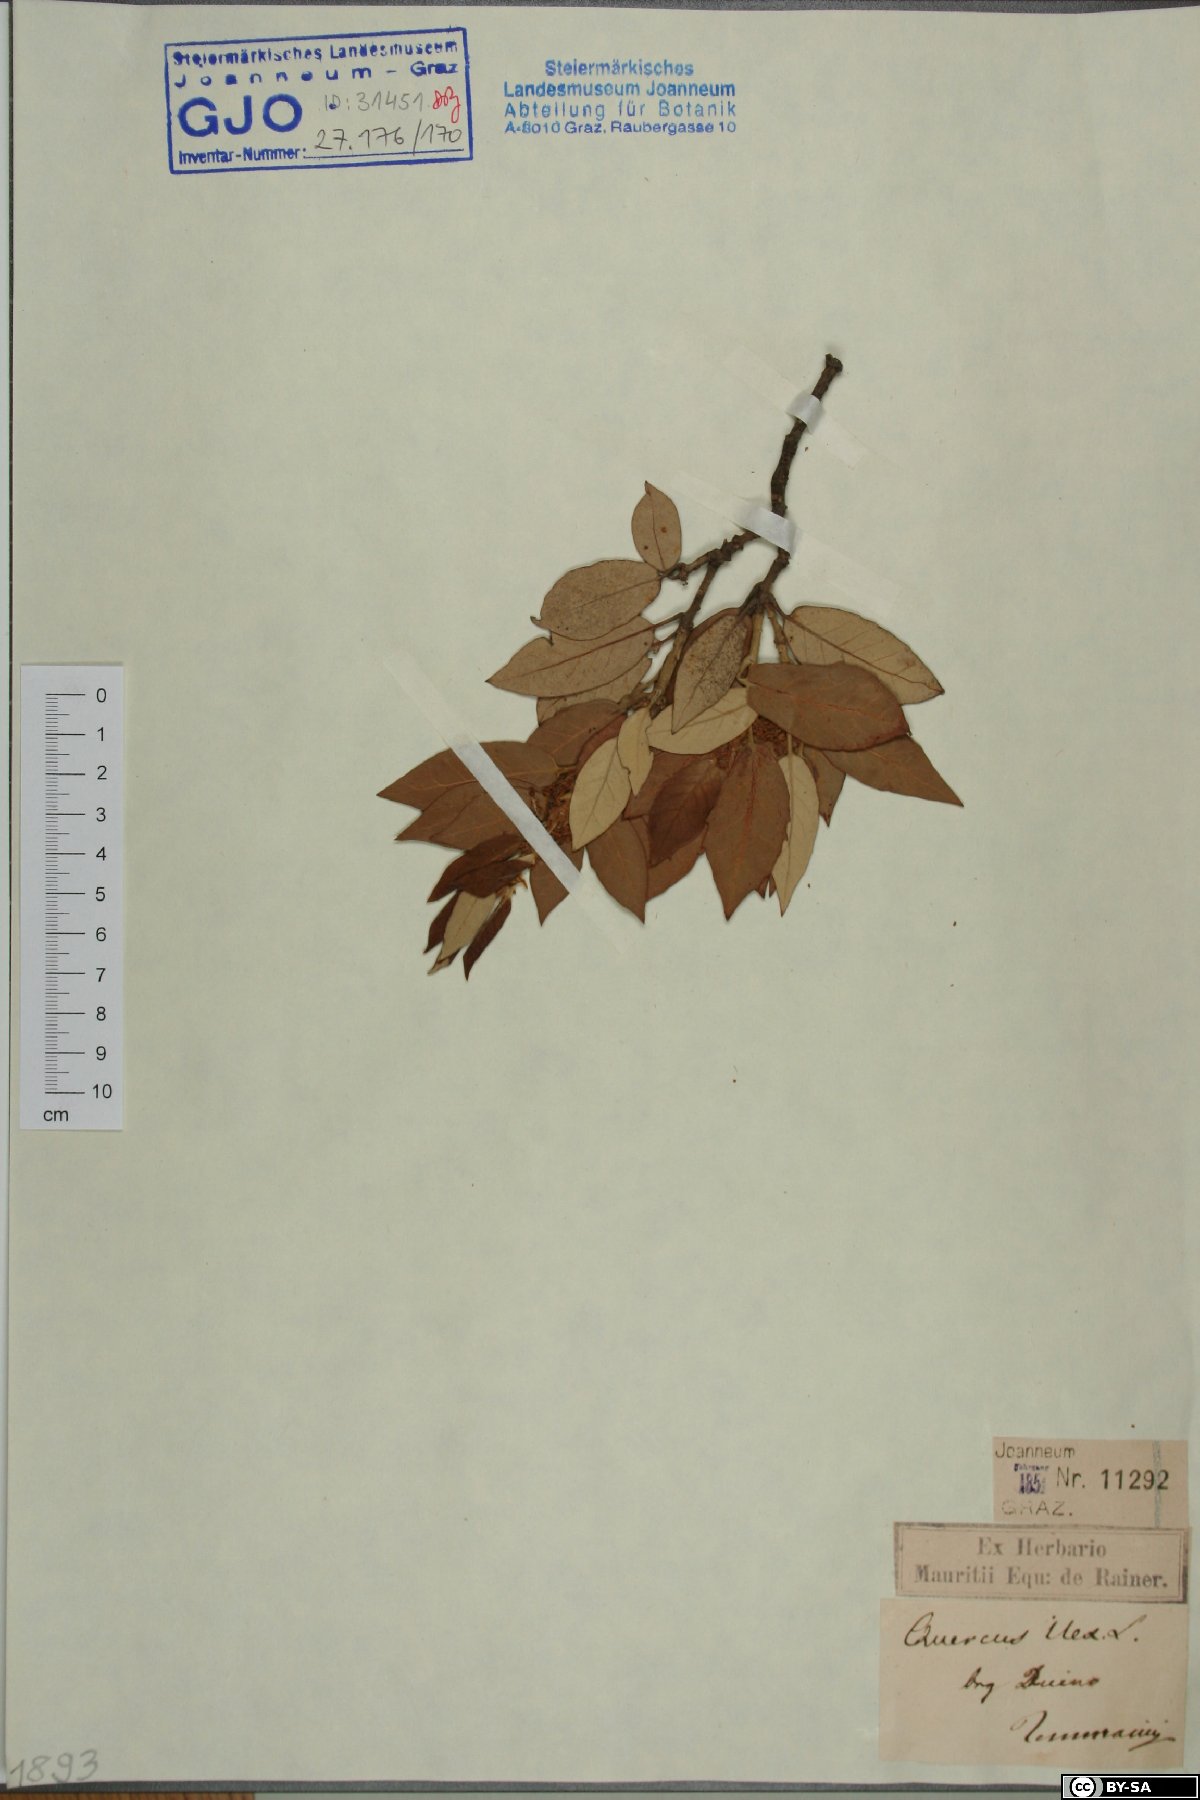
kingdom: Plantae
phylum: Tracheophyta
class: Magnoliopsida
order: Fagales
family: Fagaceae
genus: Quercus
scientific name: Quercus ilex
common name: Evergreen oak
